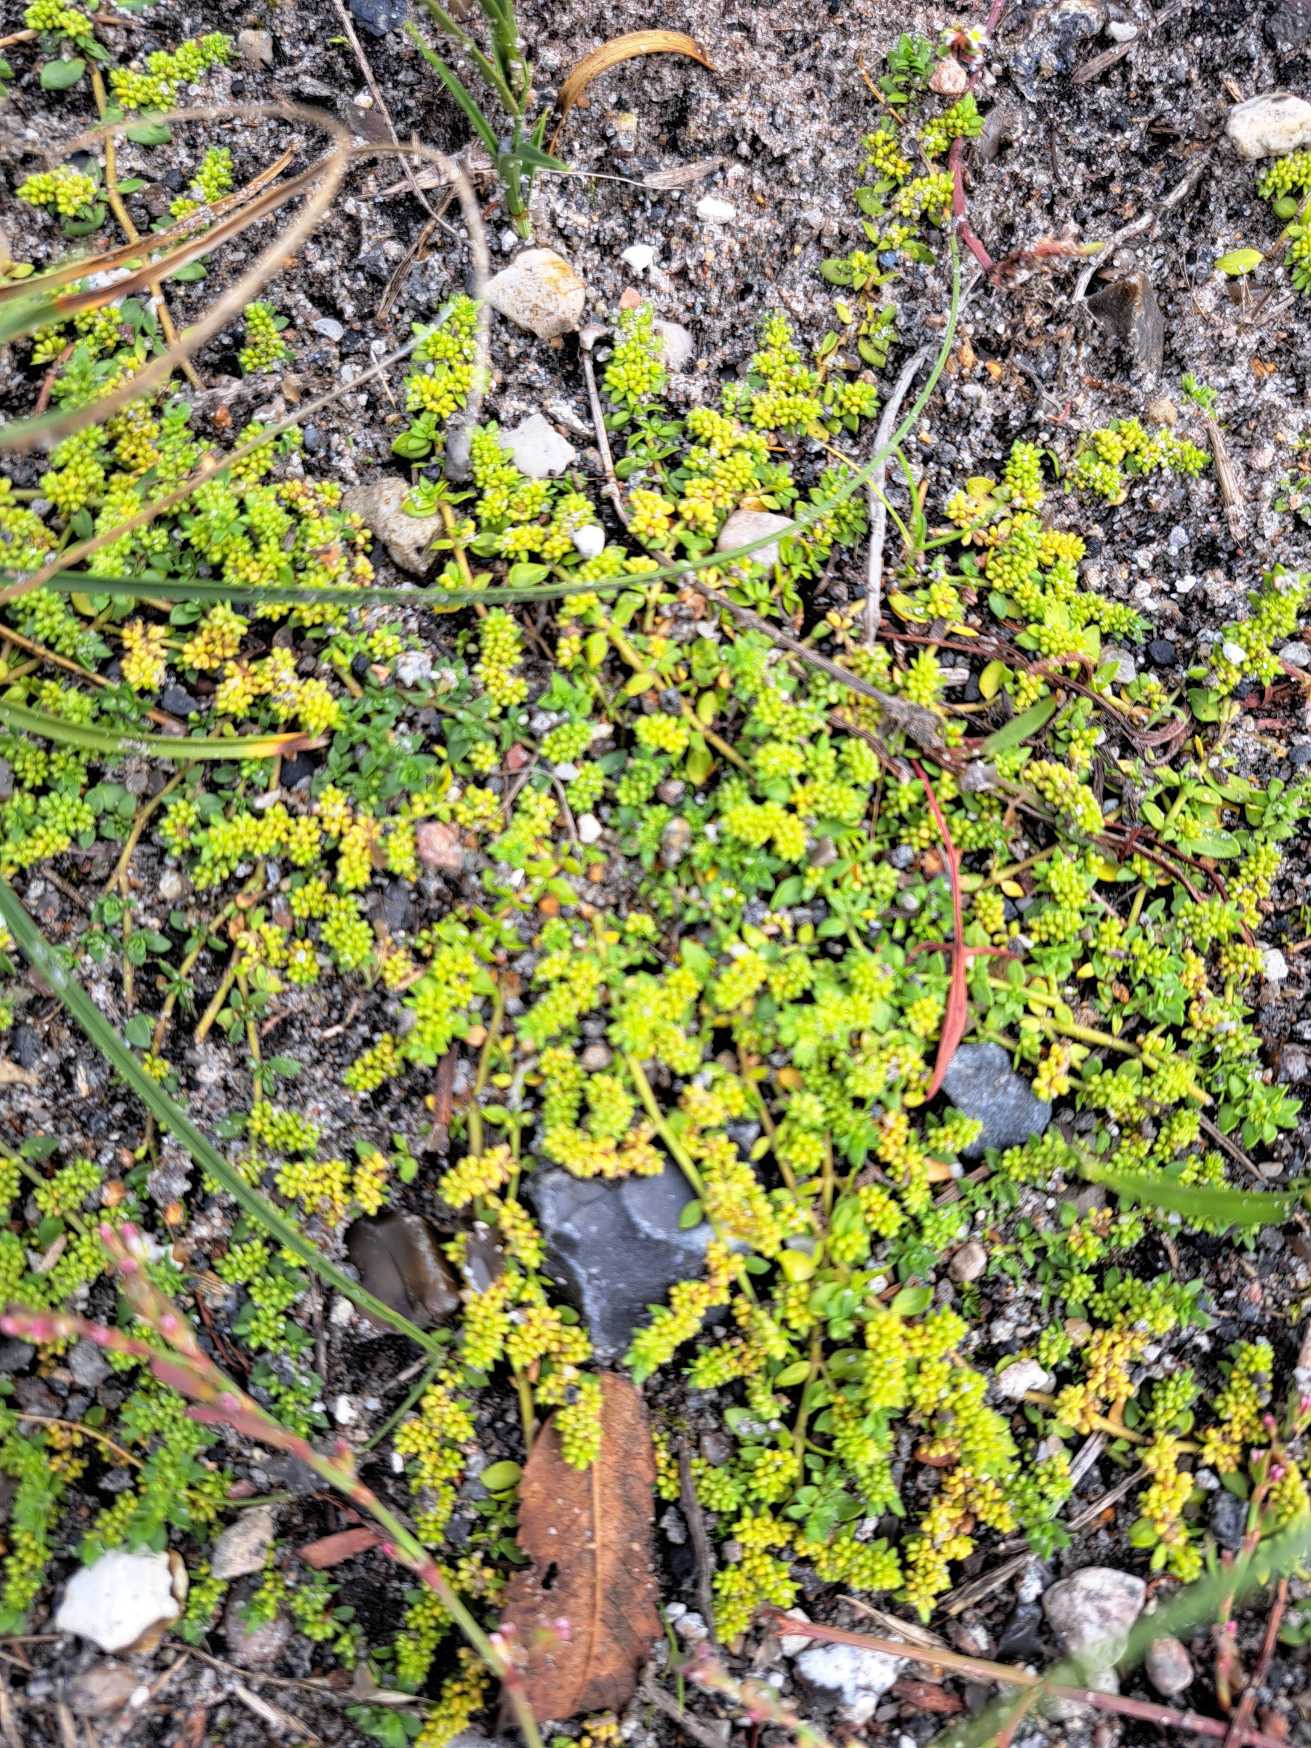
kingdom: Plantae
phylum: Tracheophyta
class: Magnoliopsida
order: Caryophyllales
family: Caryophyllaceae
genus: Herniaria
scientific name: Herniaria glabra
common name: Brudurt
